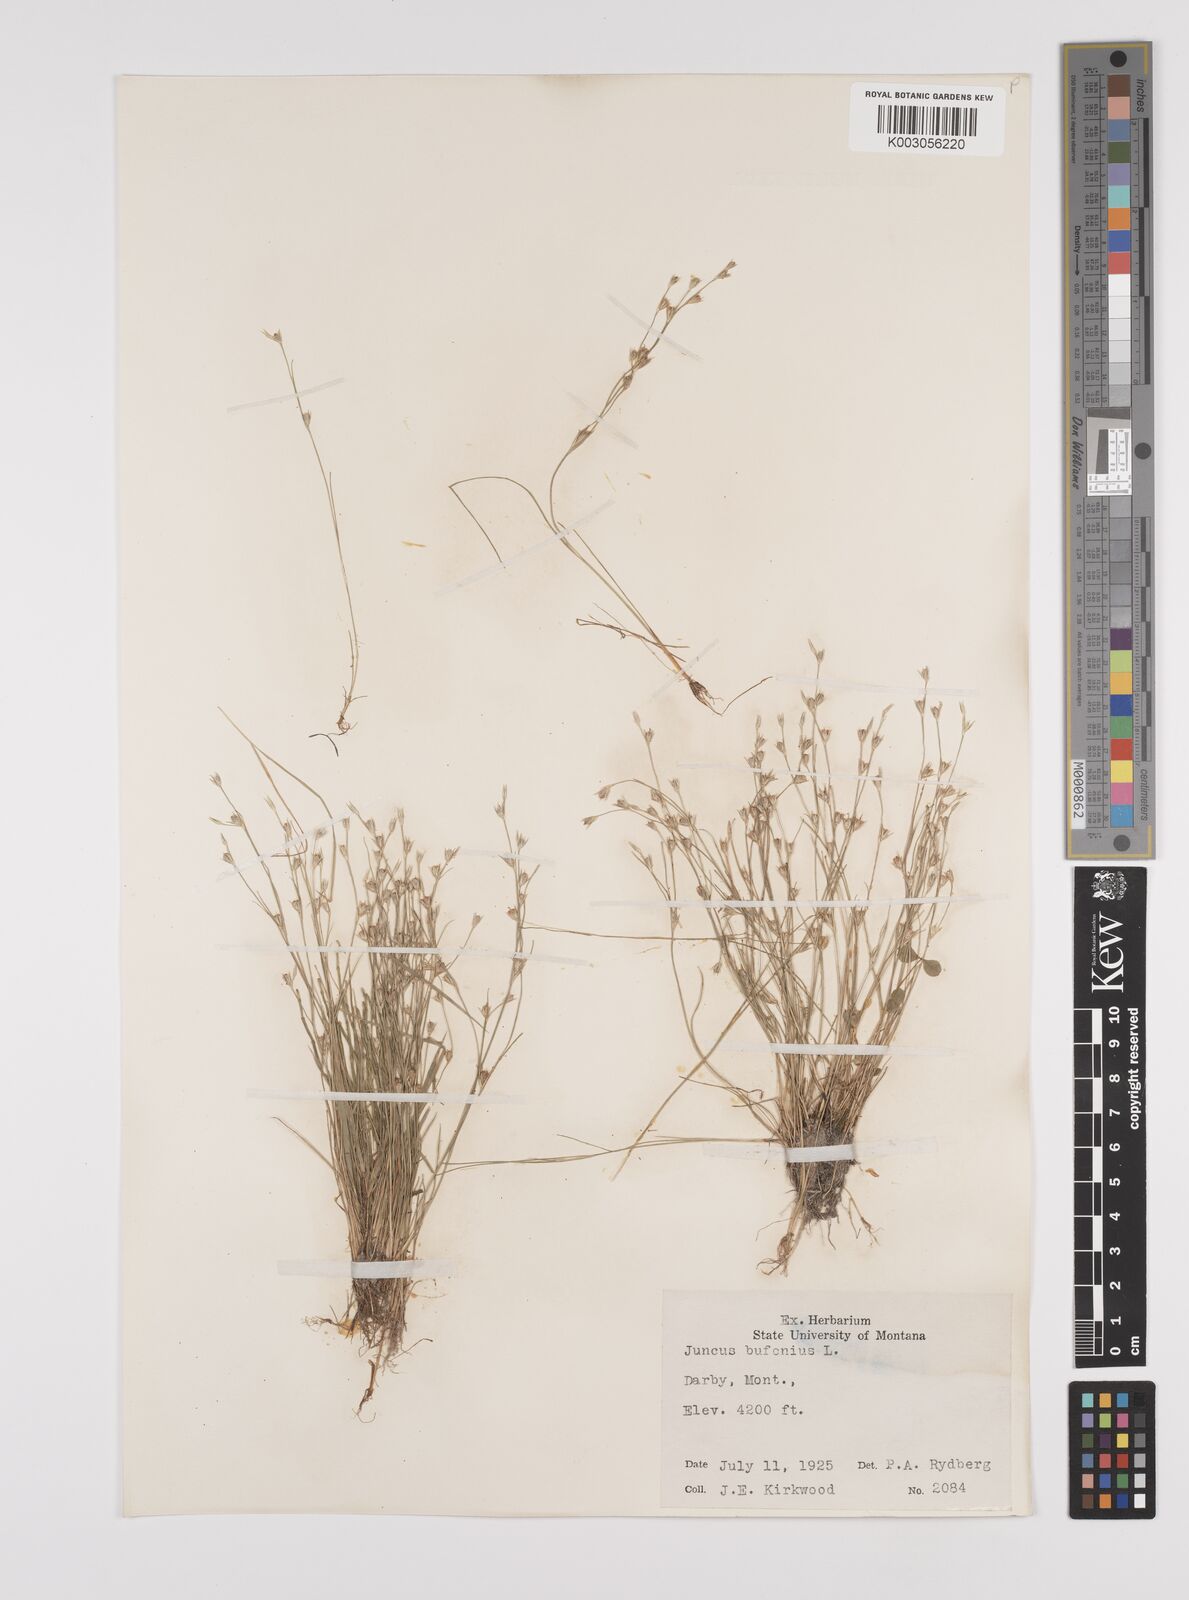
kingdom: Plantae
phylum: Tracheophyta
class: Liliopsida
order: Poales
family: Juncaceae
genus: Juncus
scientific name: Juncus bufonius
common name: Toad rush
